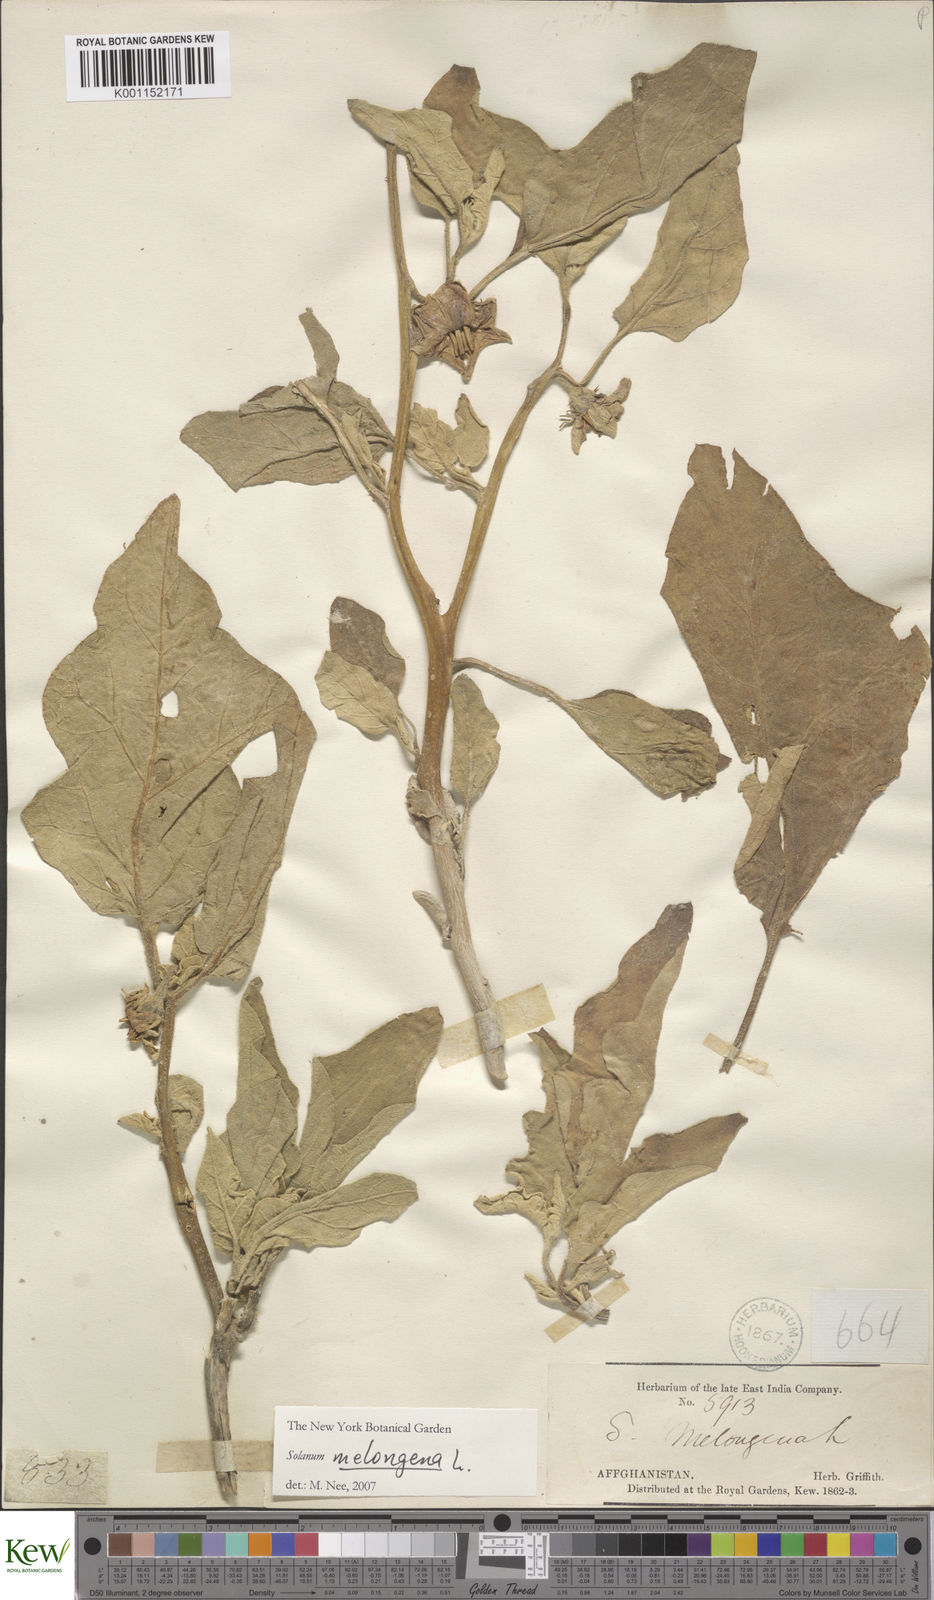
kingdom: Plantae
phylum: Tracheophyta
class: Magnoliopsida
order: Solanales
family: Solanaceae
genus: Solanum
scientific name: Solanum melongena
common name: Eggplant
